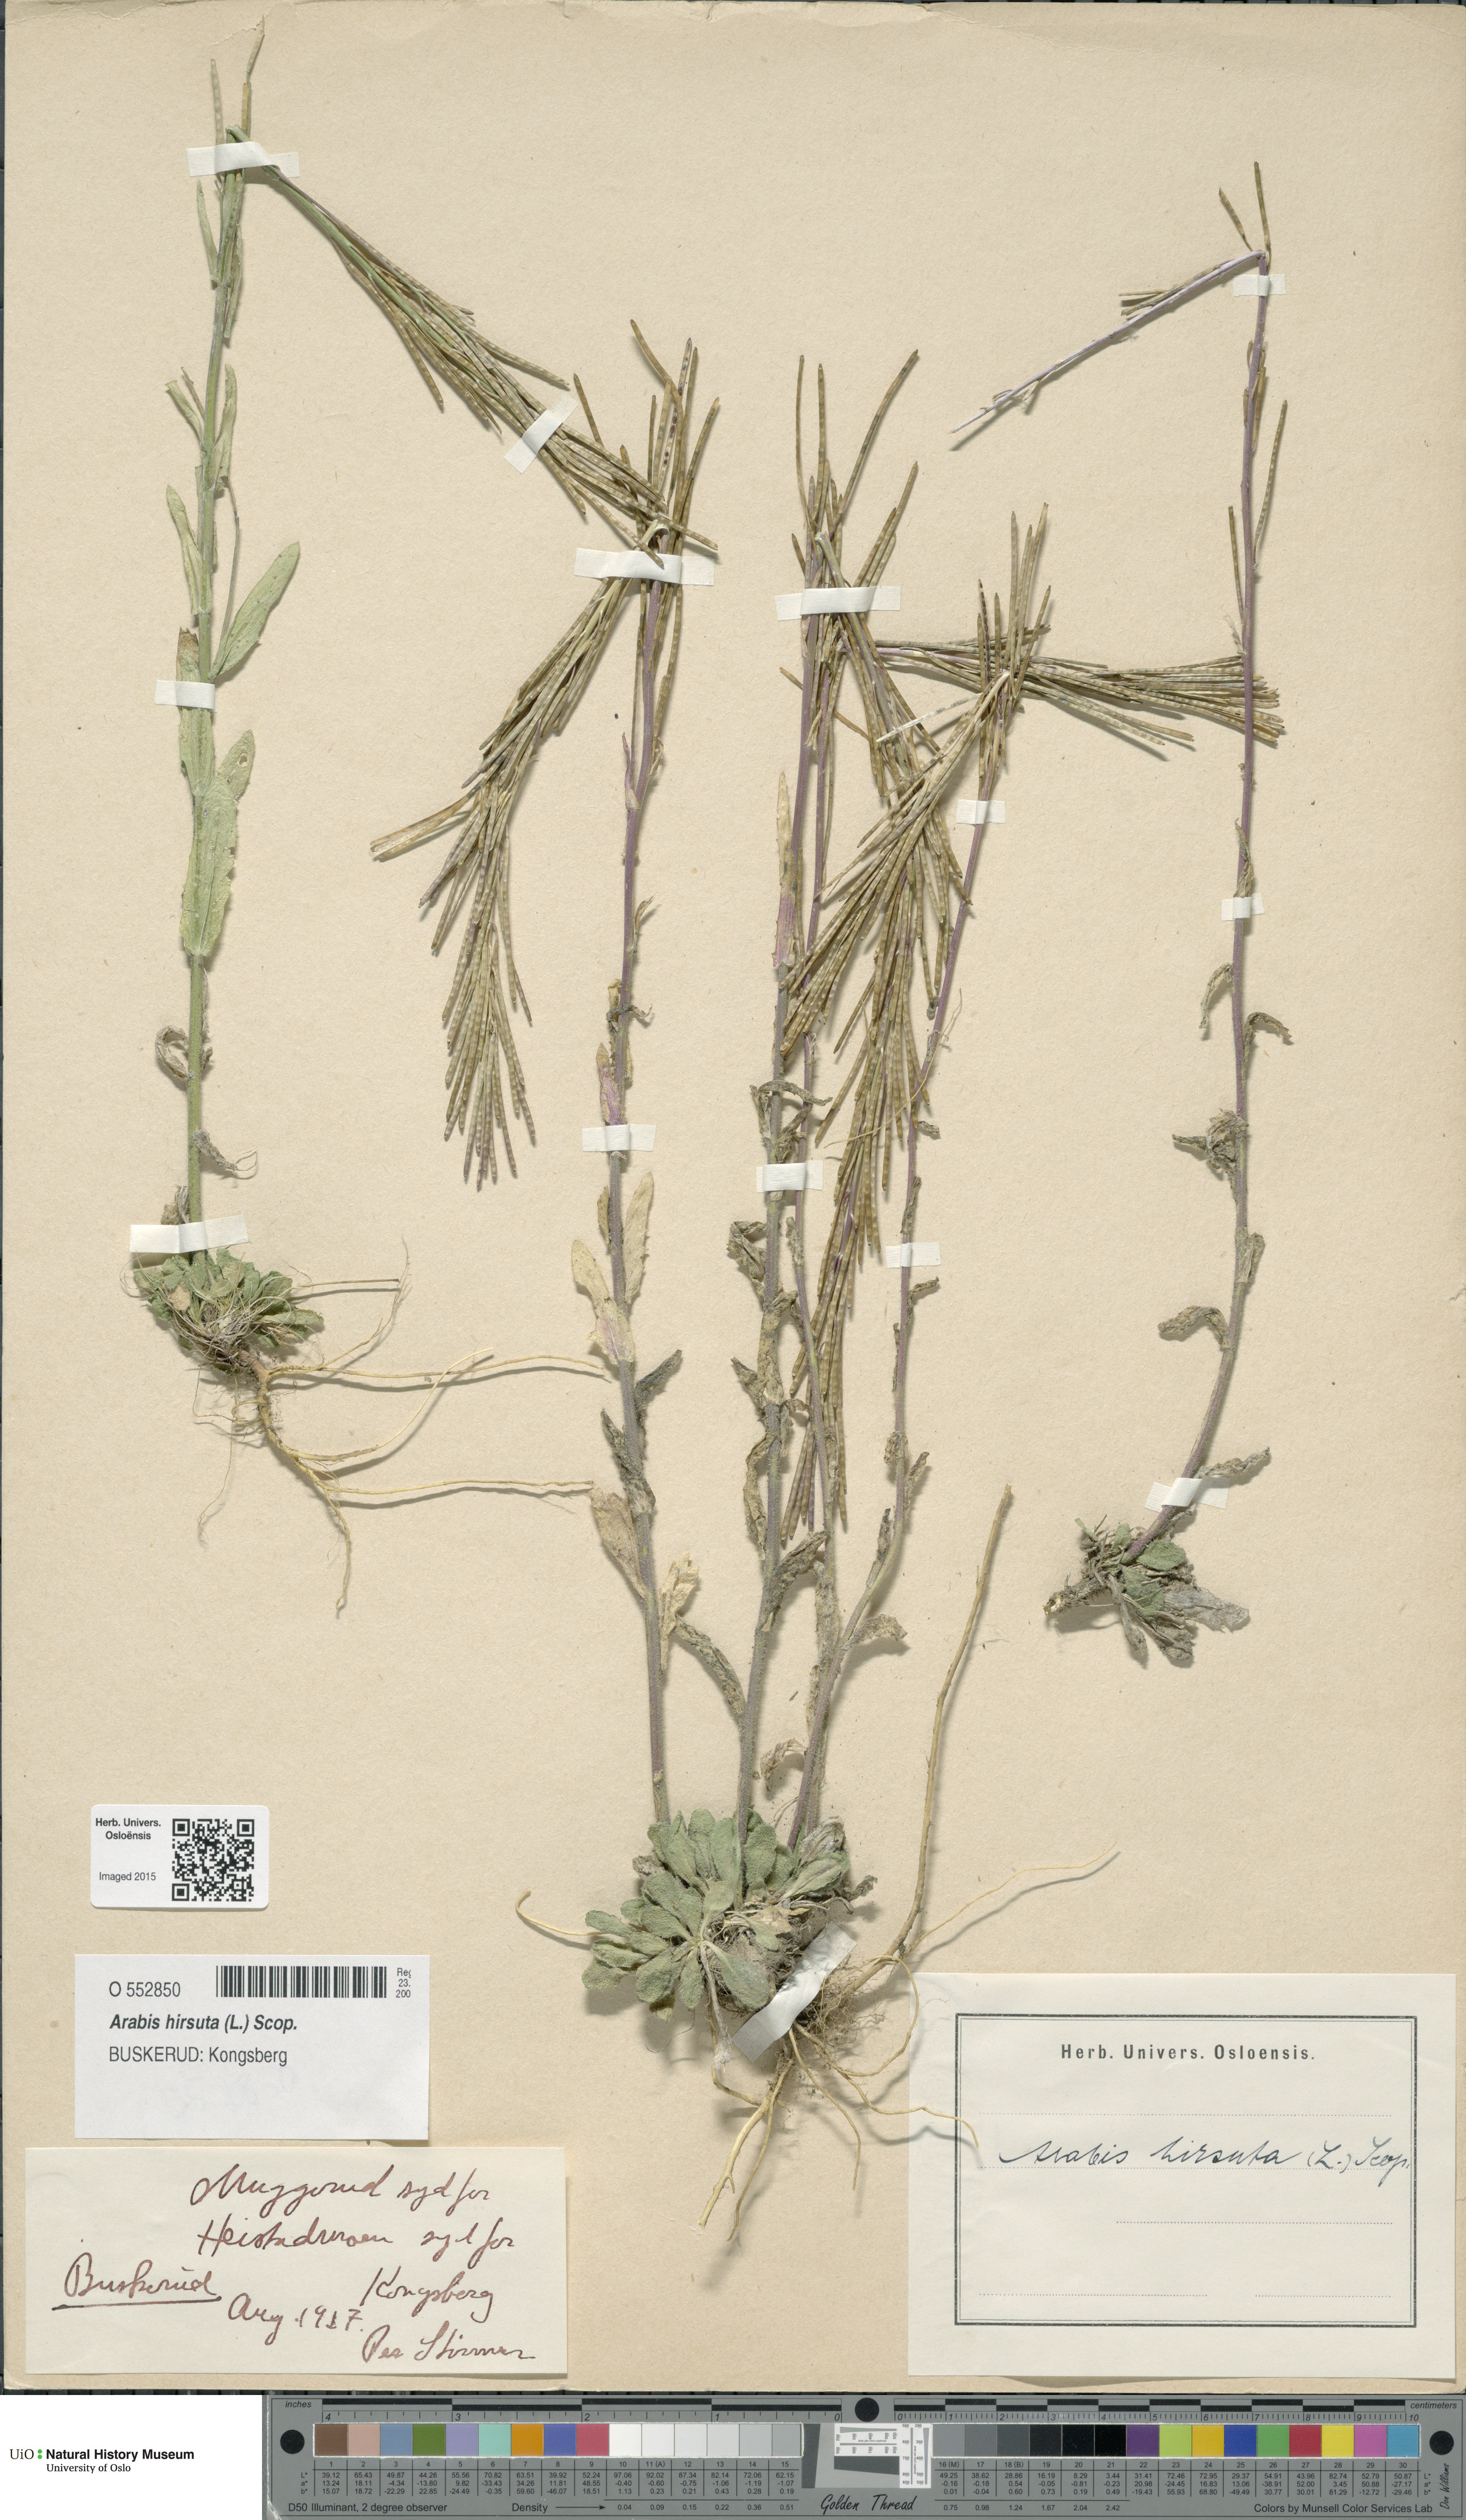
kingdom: Plantae
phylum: Tracheophyta
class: Magnoliopsida
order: Brassicales
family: Brassicaceae
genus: Arabis
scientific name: Arabis hirsuta
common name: Hairy rock-cress
